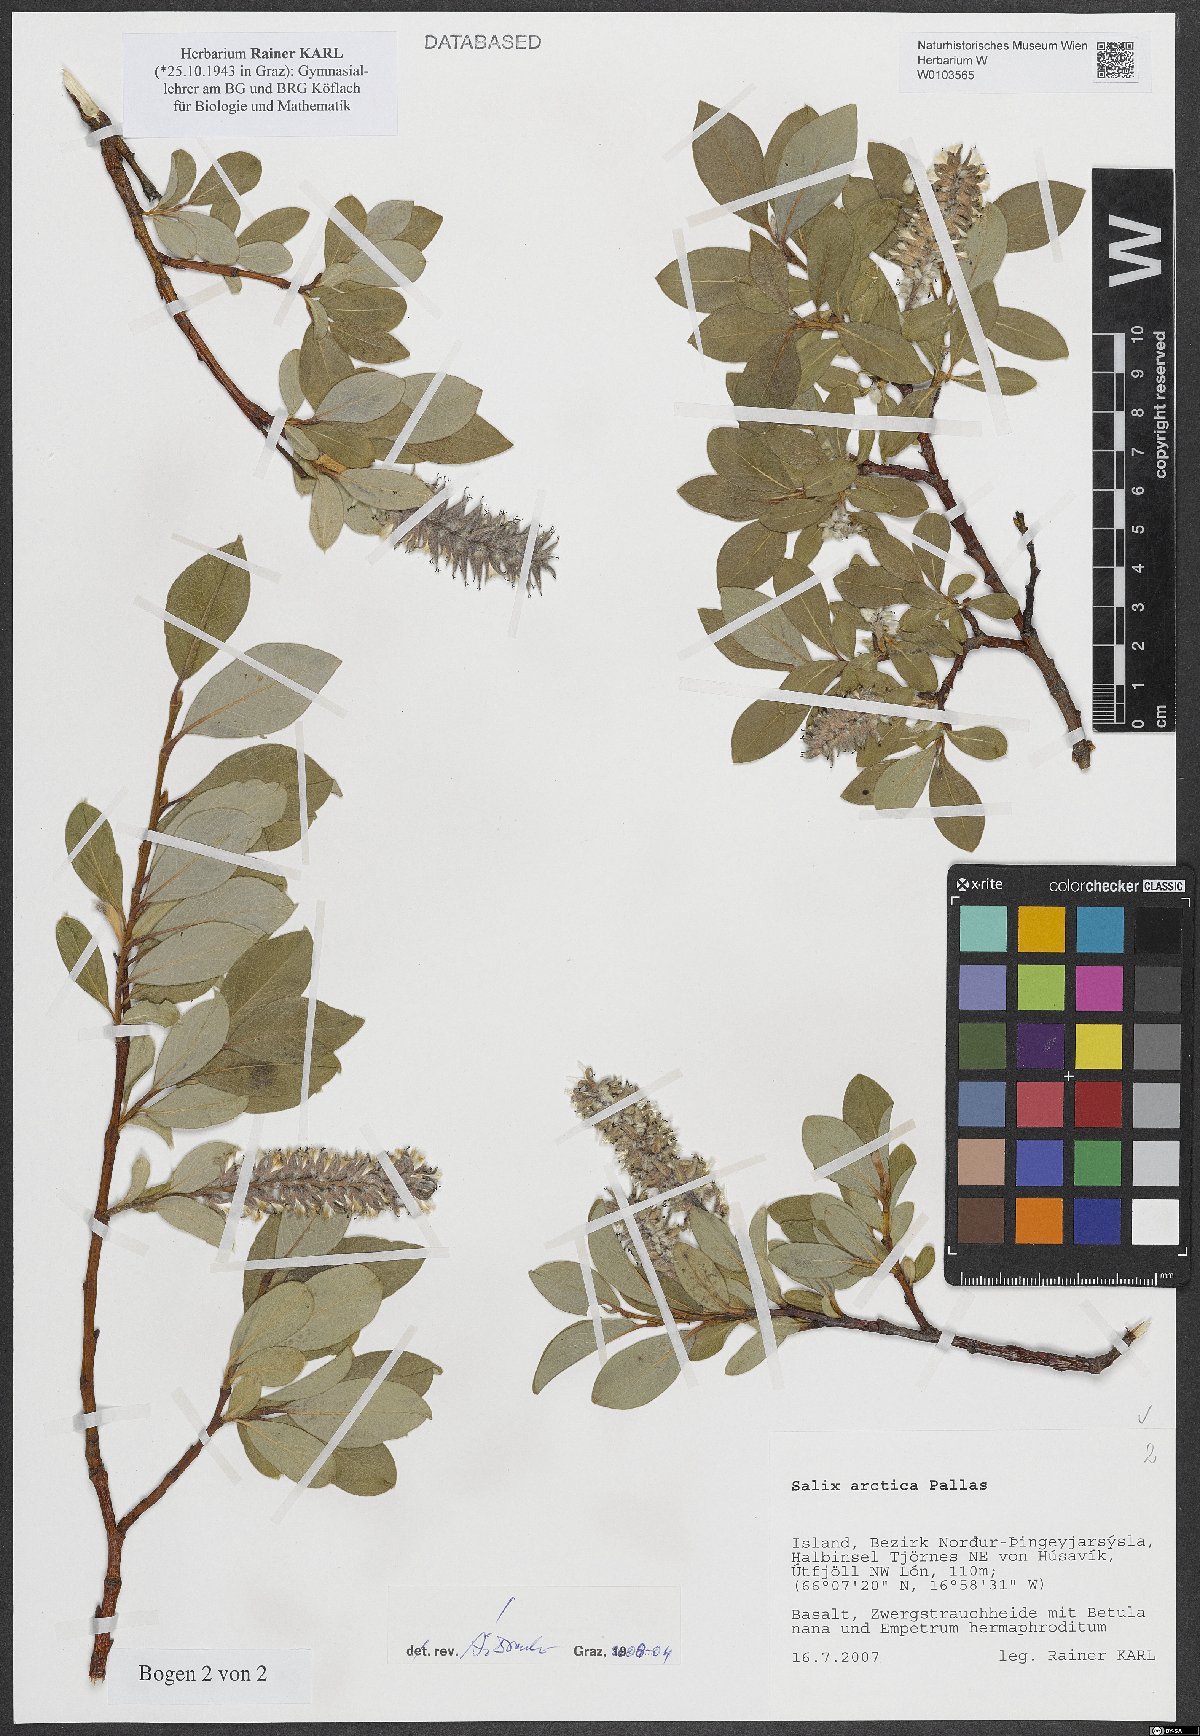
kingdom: Plantae
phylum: Tracheophyta
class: Magnoliopsida
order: Malpighiales
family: Salicaceae
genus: Salix
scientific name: Salix arctica
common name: Arctic willow
